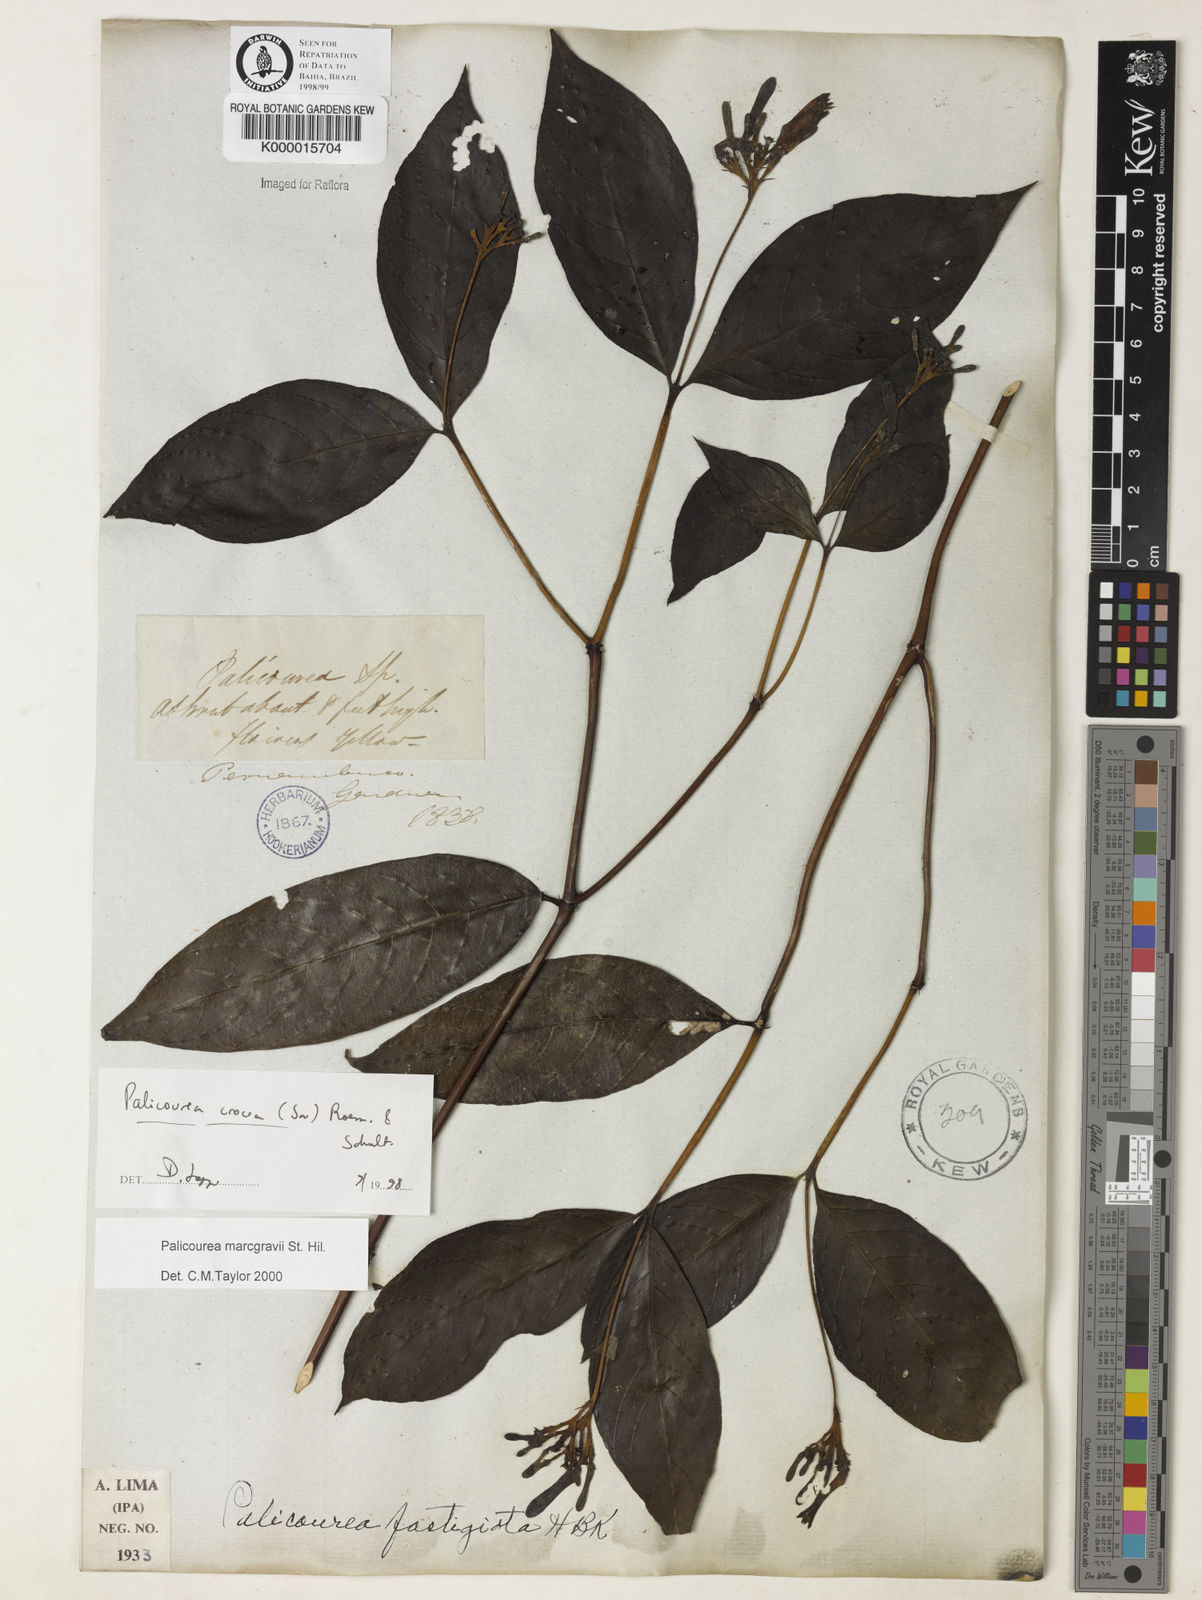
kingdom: Plantae
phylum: Tracheophyta
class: Magnoliopsida
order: Gentianales
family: Rubiaceae
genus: Palicourea
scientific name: Palicourea marcgravii
